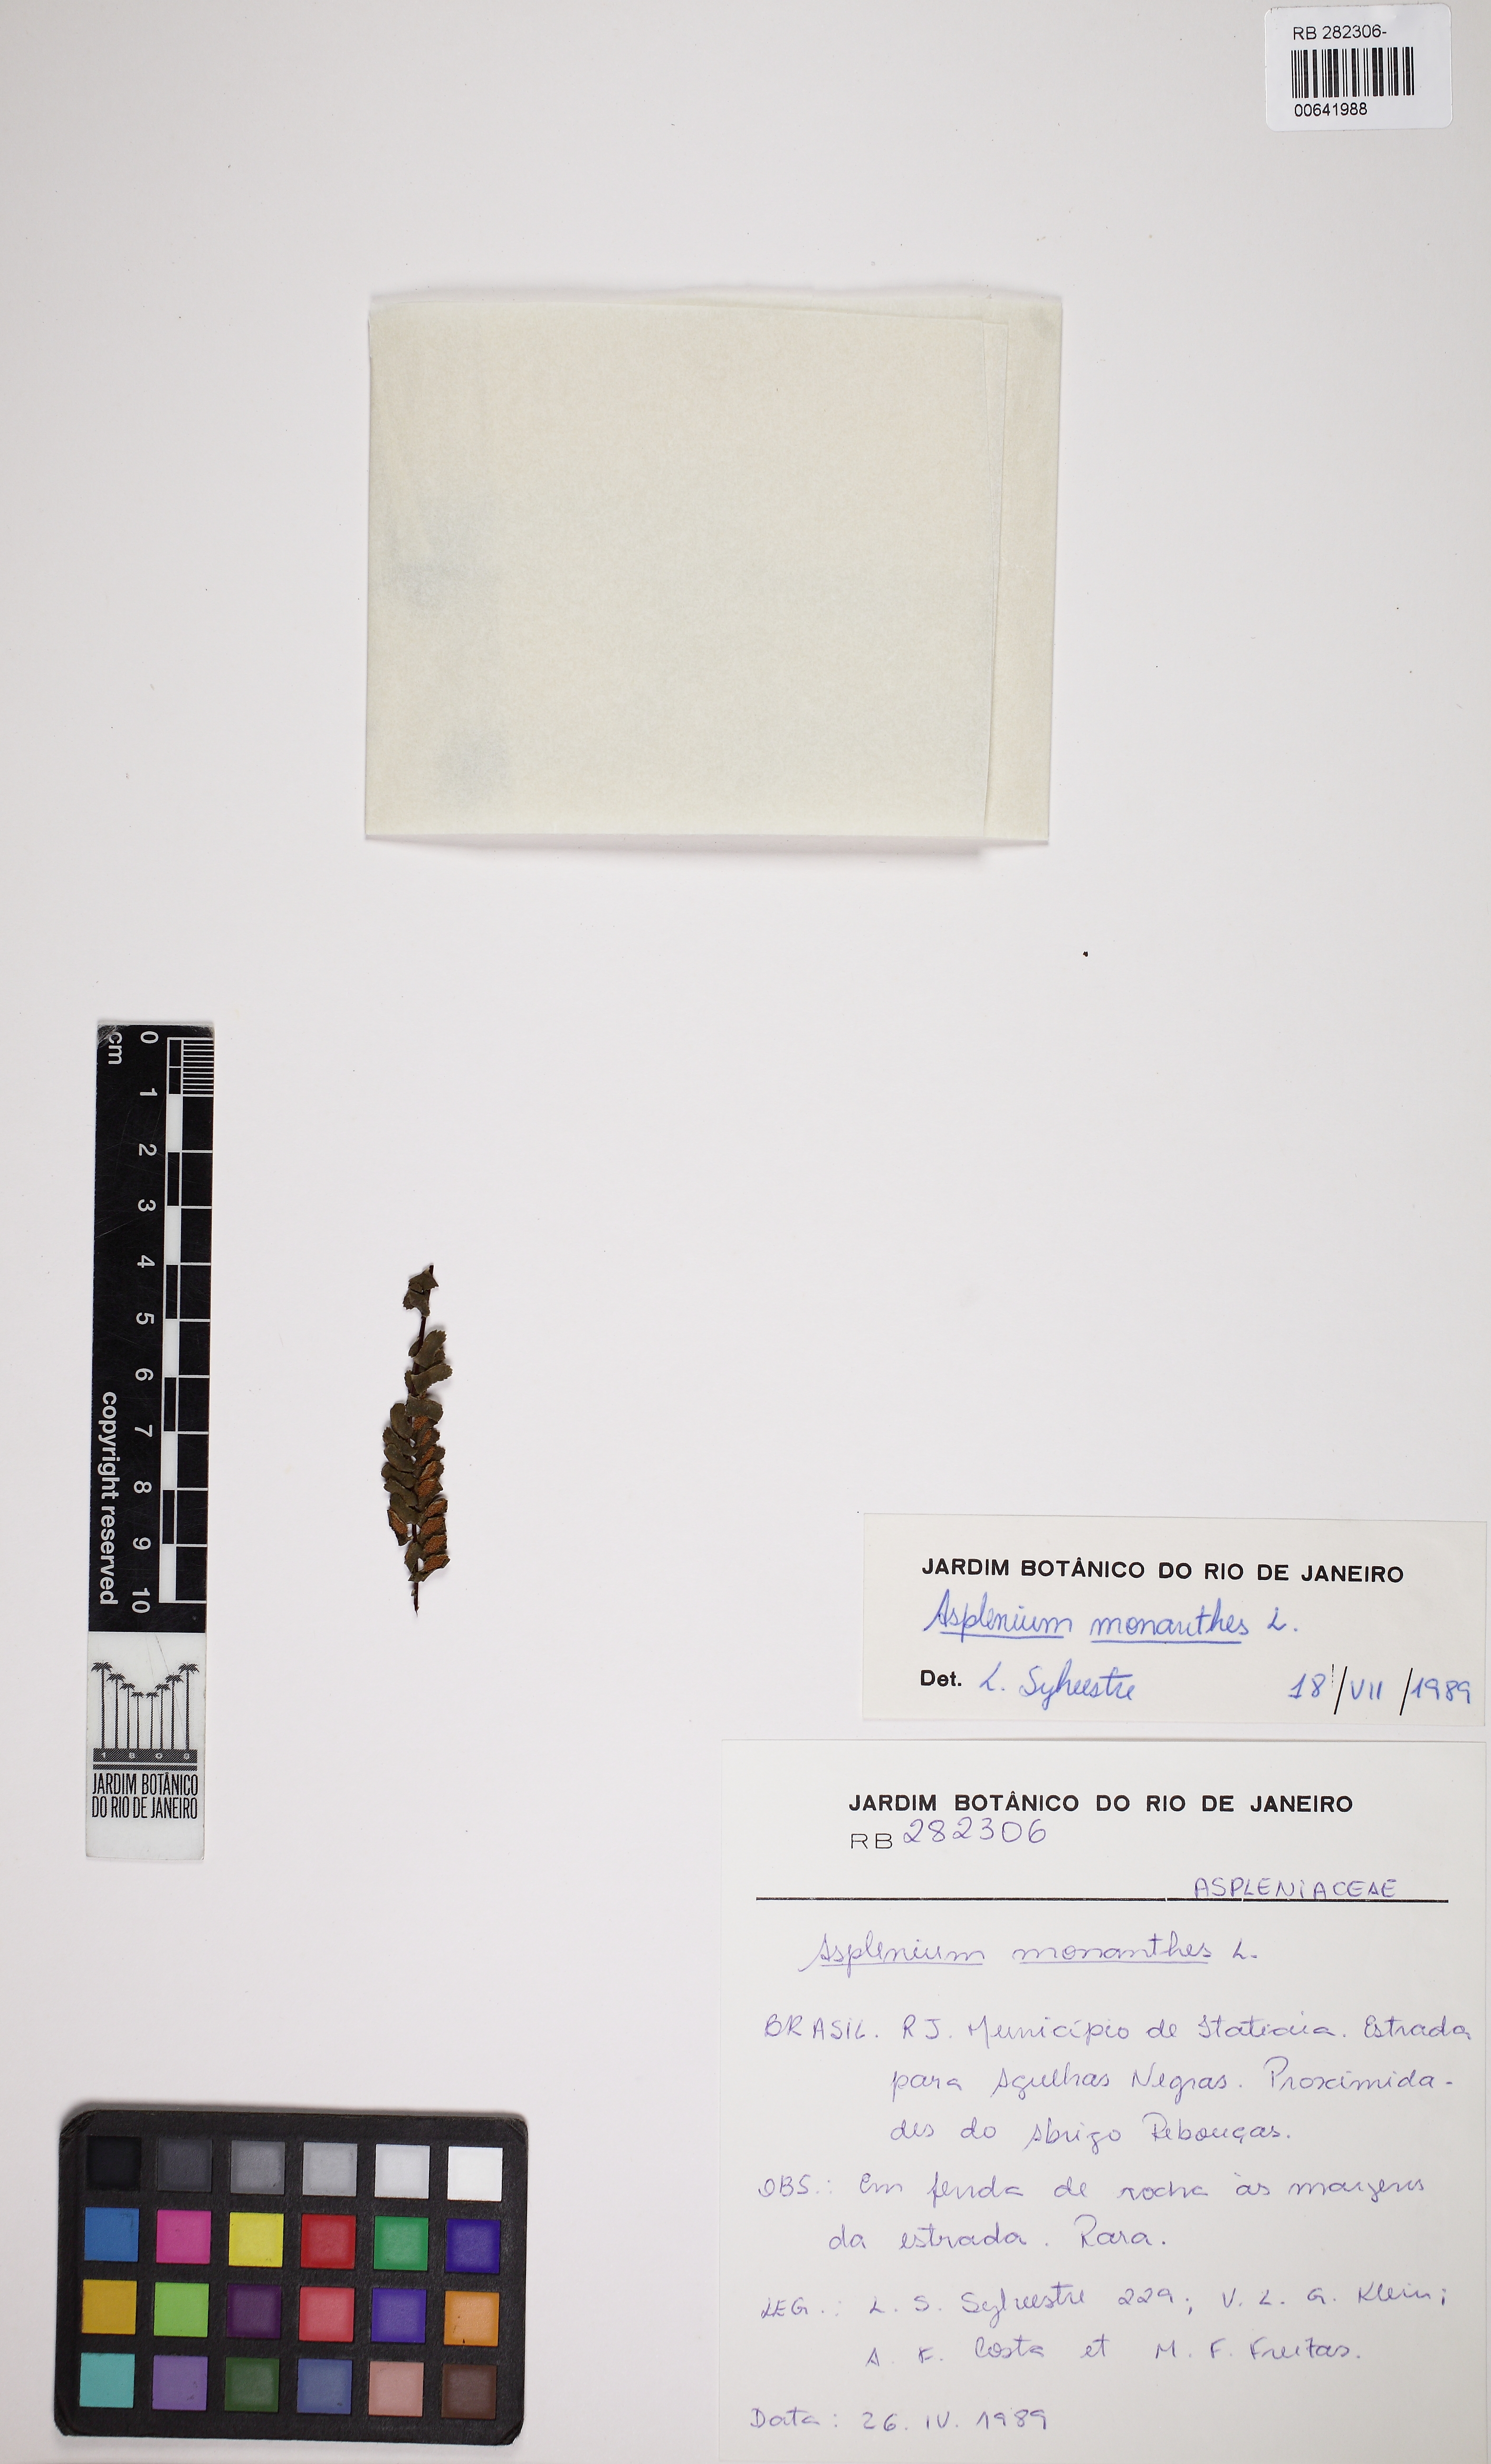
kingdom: Plantae
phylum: Tracheophyta
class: Polypodiopsida
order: Polypodiales
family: Aspleniaceae
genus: Asplenium
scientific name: Asplenium monanthes
